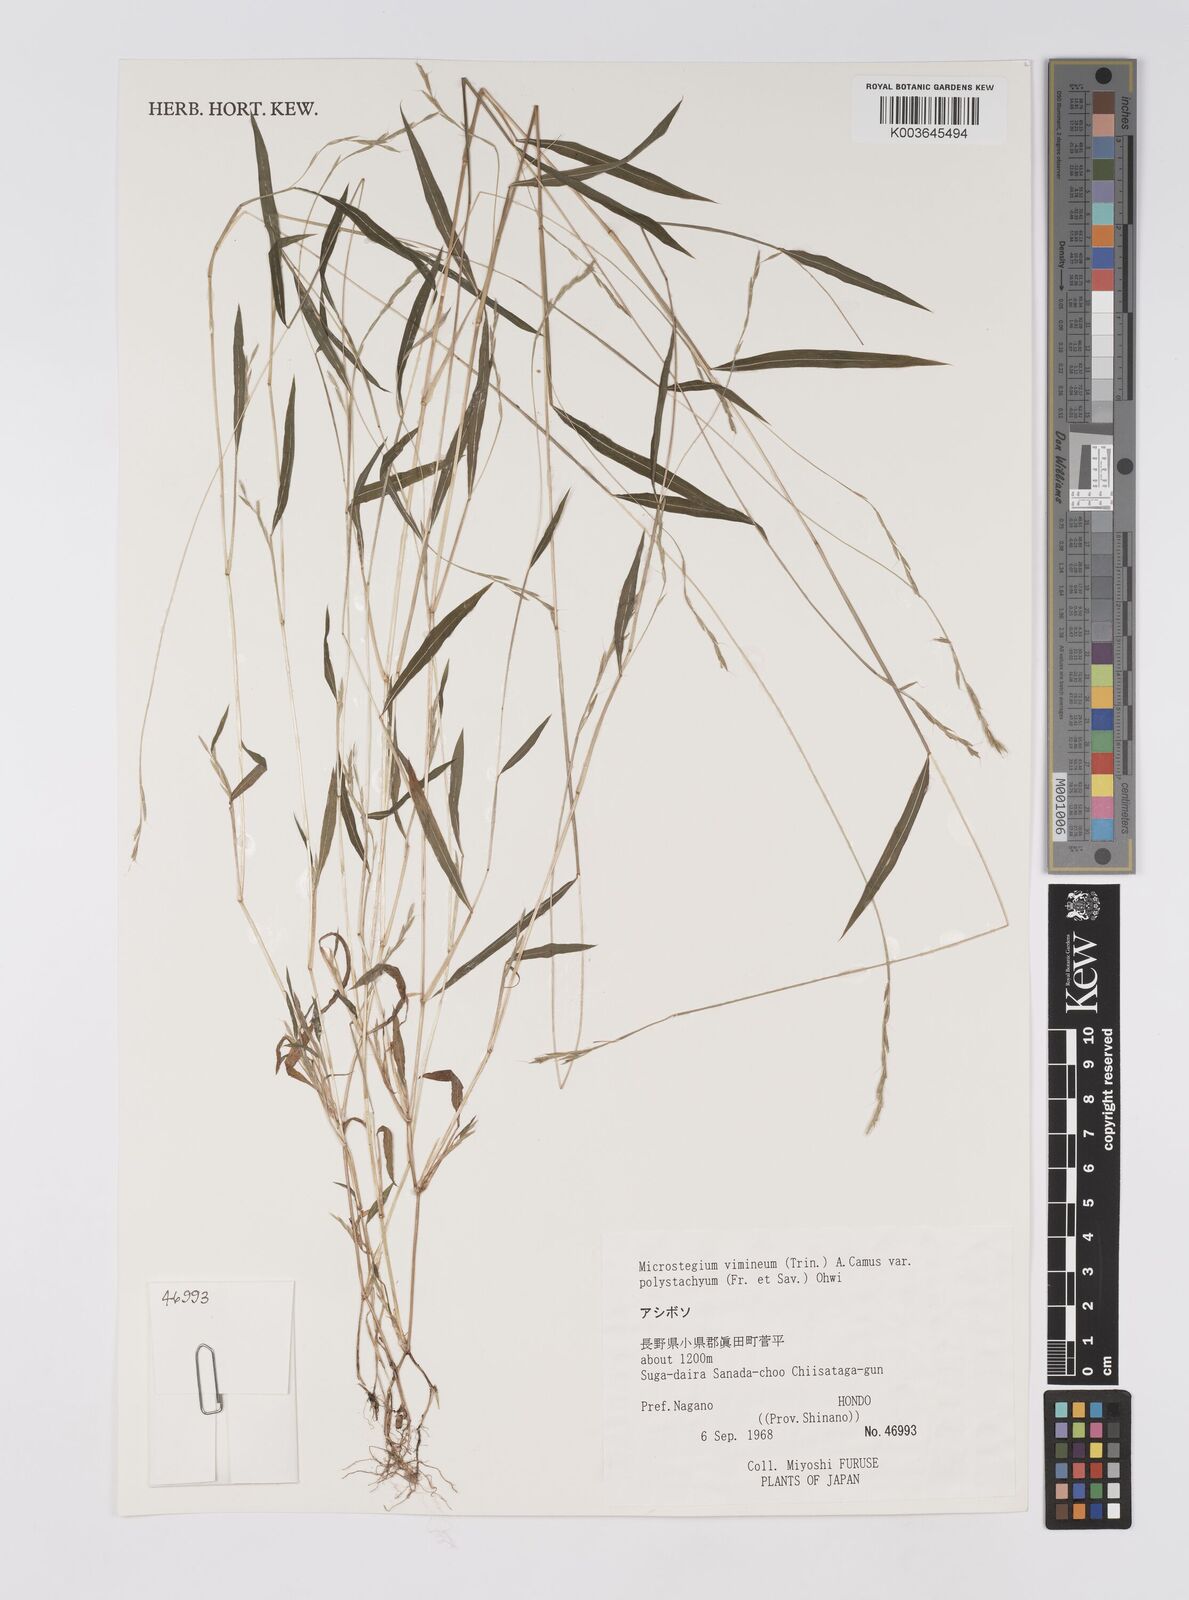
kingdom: Plantae
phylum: Tracheophyta
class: Liliopsida
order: Poales
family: Poaceae
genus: Microstegium
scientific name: Microstegium vimineum
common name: Japanese stiltgrass
